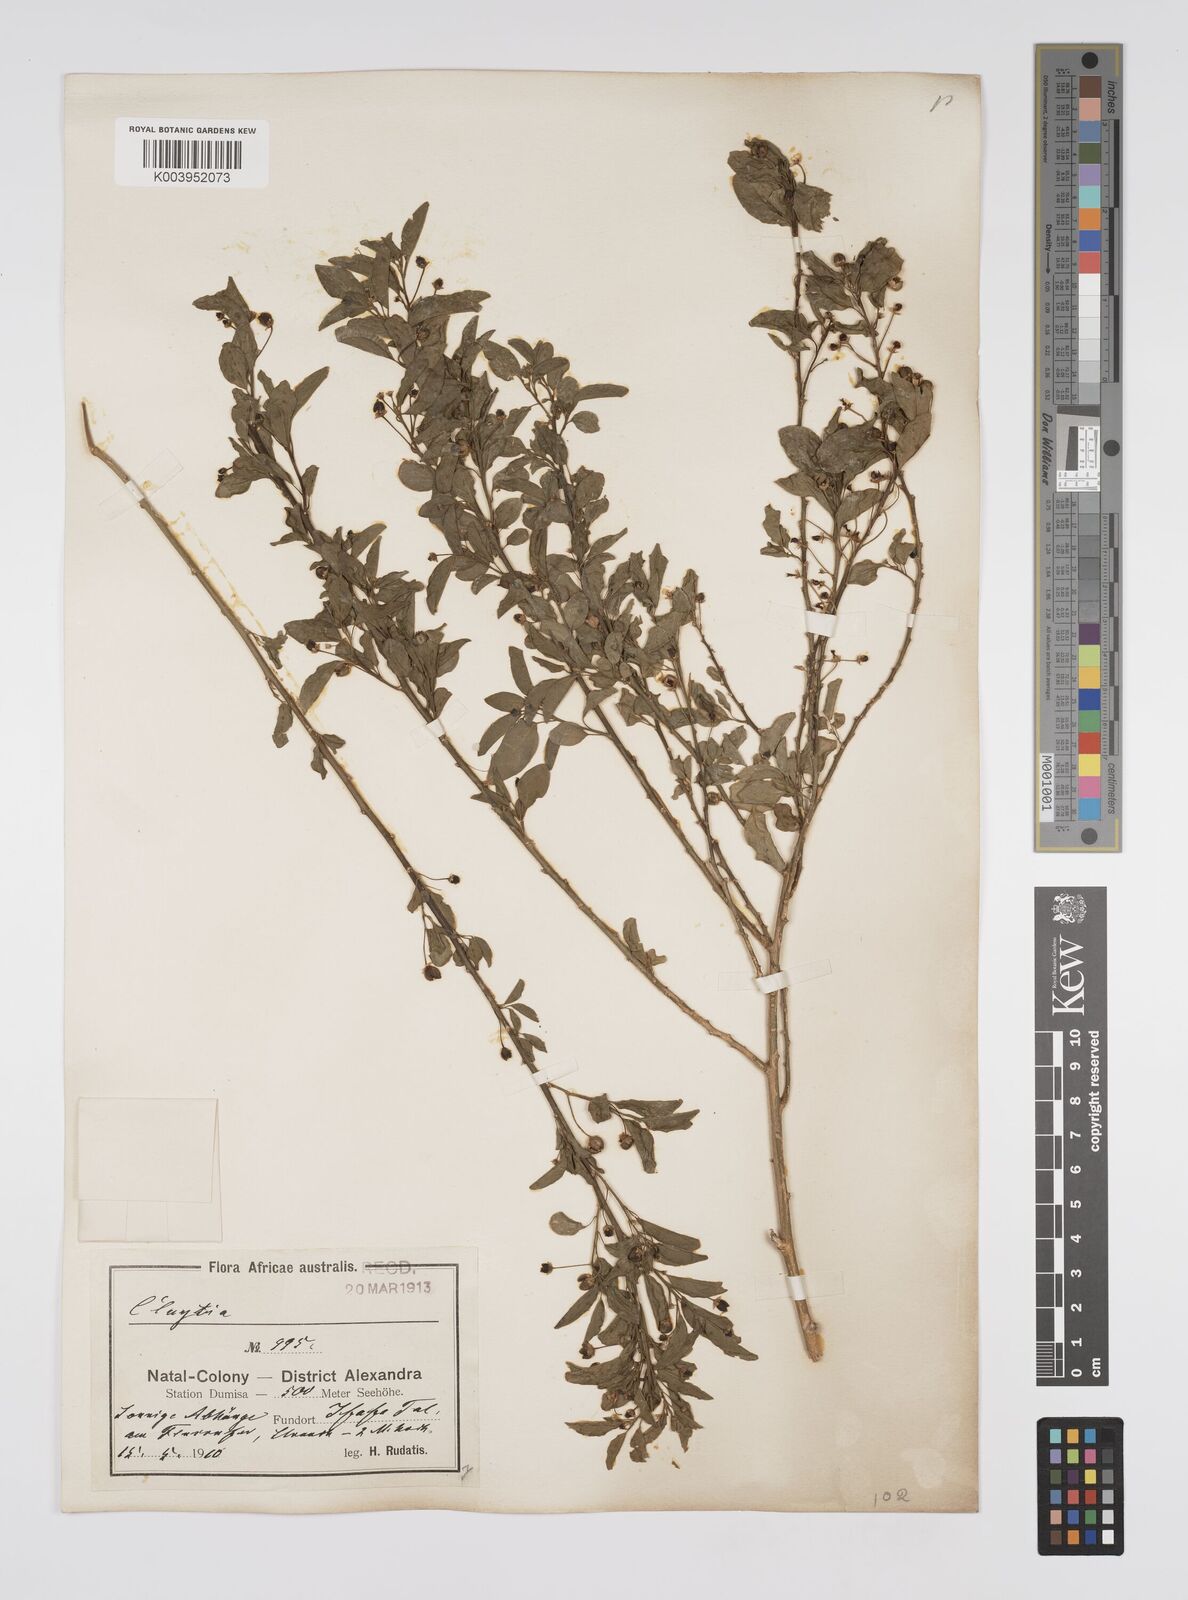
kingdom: Plantae
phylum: Tracheophyta
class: Magnoliopsida
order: Malpighiales
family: Peraceae
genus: Clutia
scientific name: Clutia
